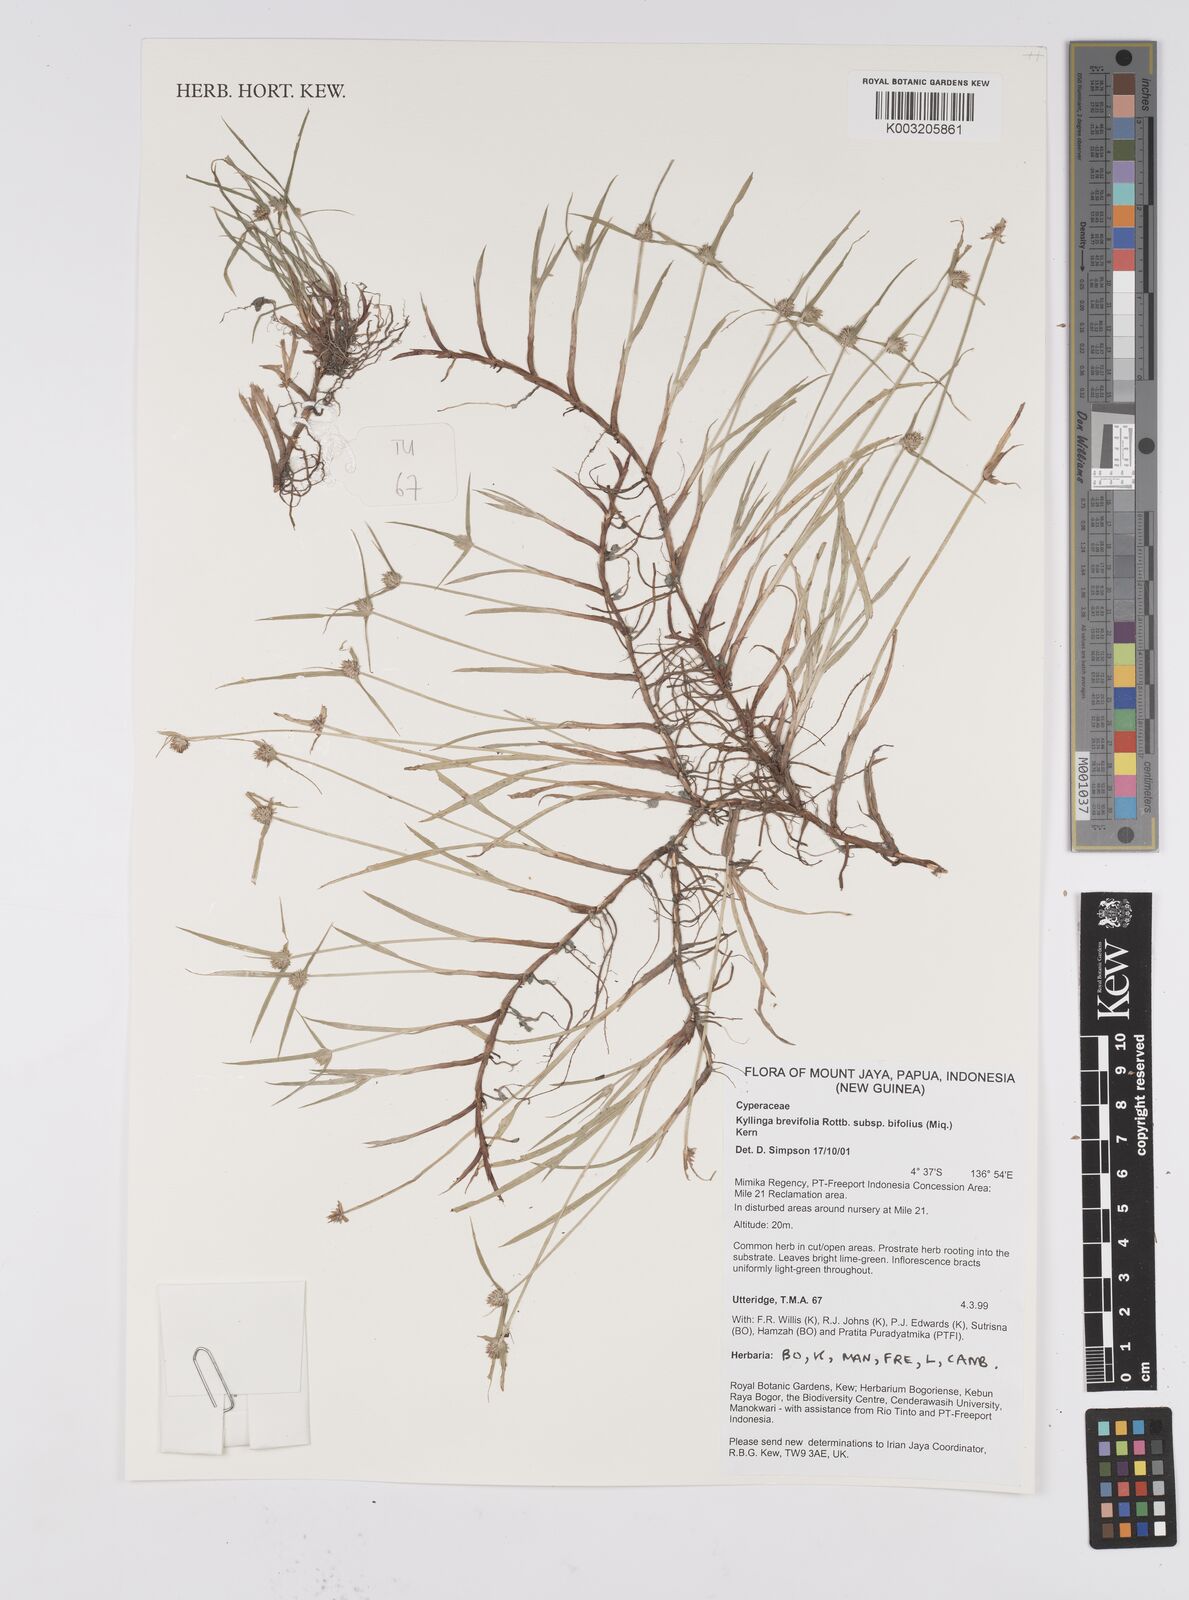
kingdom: Plantae
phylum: Tracheophyta
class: Liliopsida
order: Poales
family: Cyperaceae
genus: Cyperus
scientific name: Cyperus brevifolius
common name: Globe kyllinga
